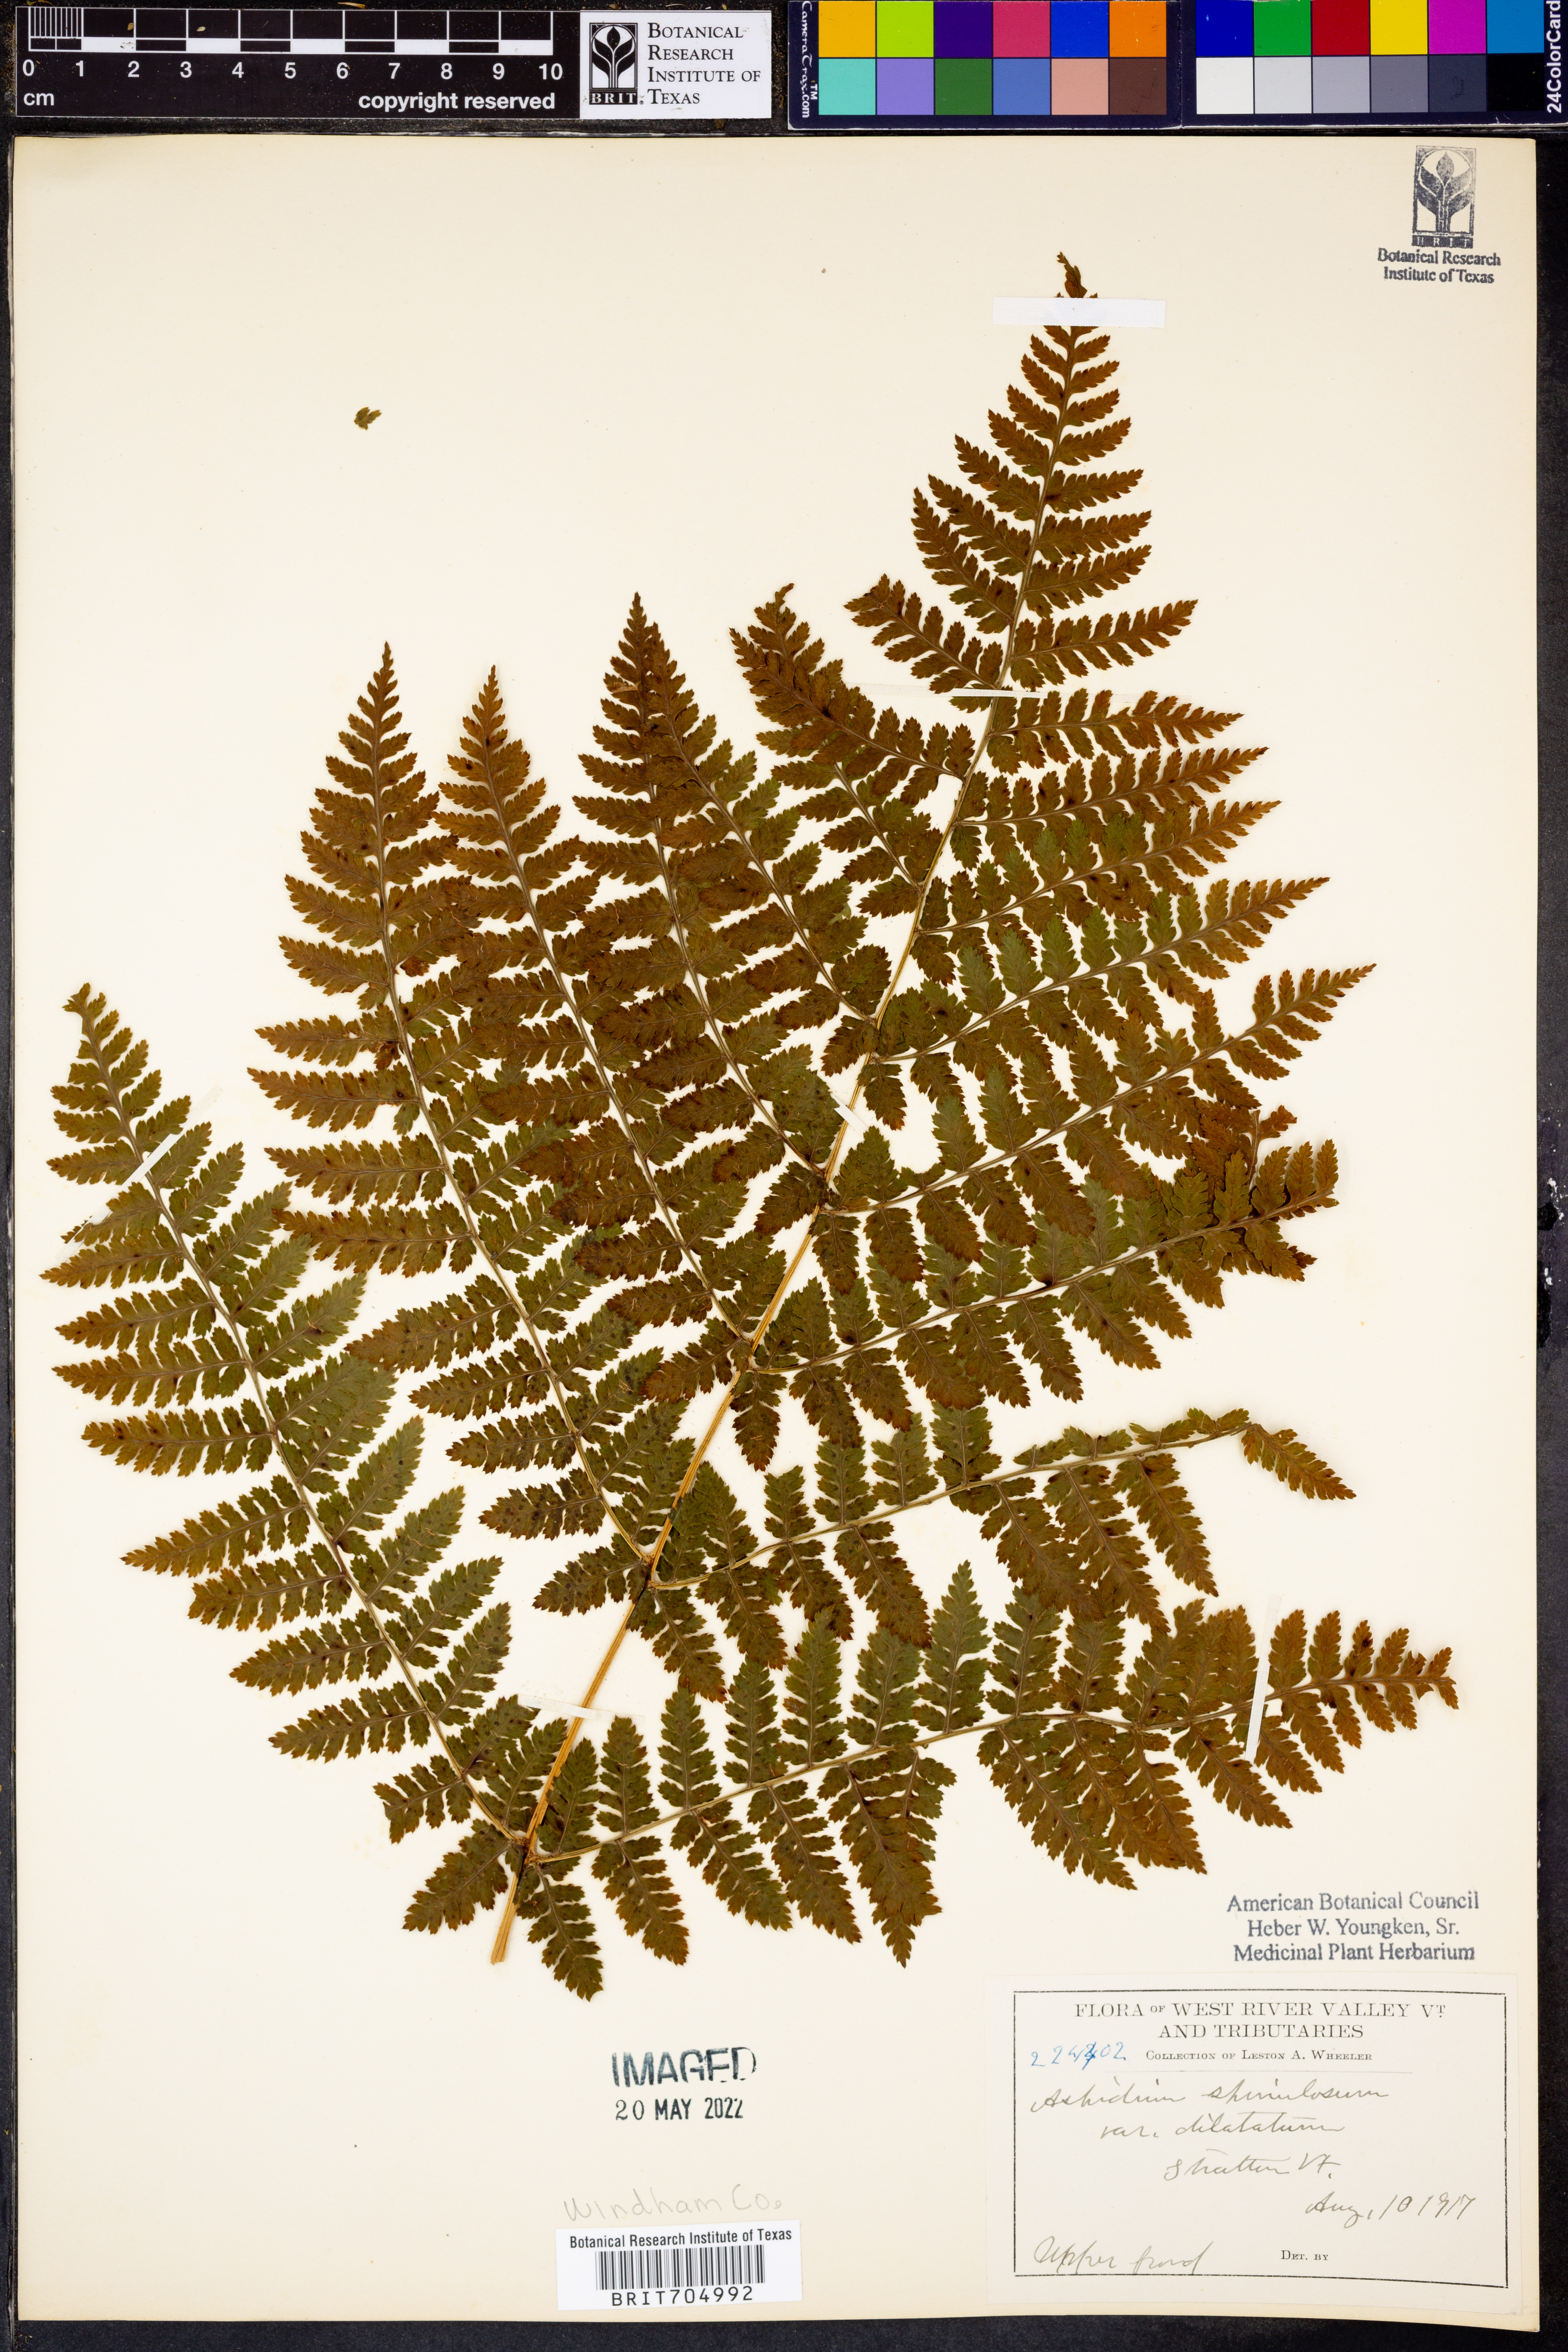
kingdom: Plantae
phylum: Tracheophyta
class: Polypodiopsida
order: Polypodiales
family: Dryopteridaceae
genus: Dryopteris
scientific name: Dryopteris dilatata
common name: Broad buckler-fern
